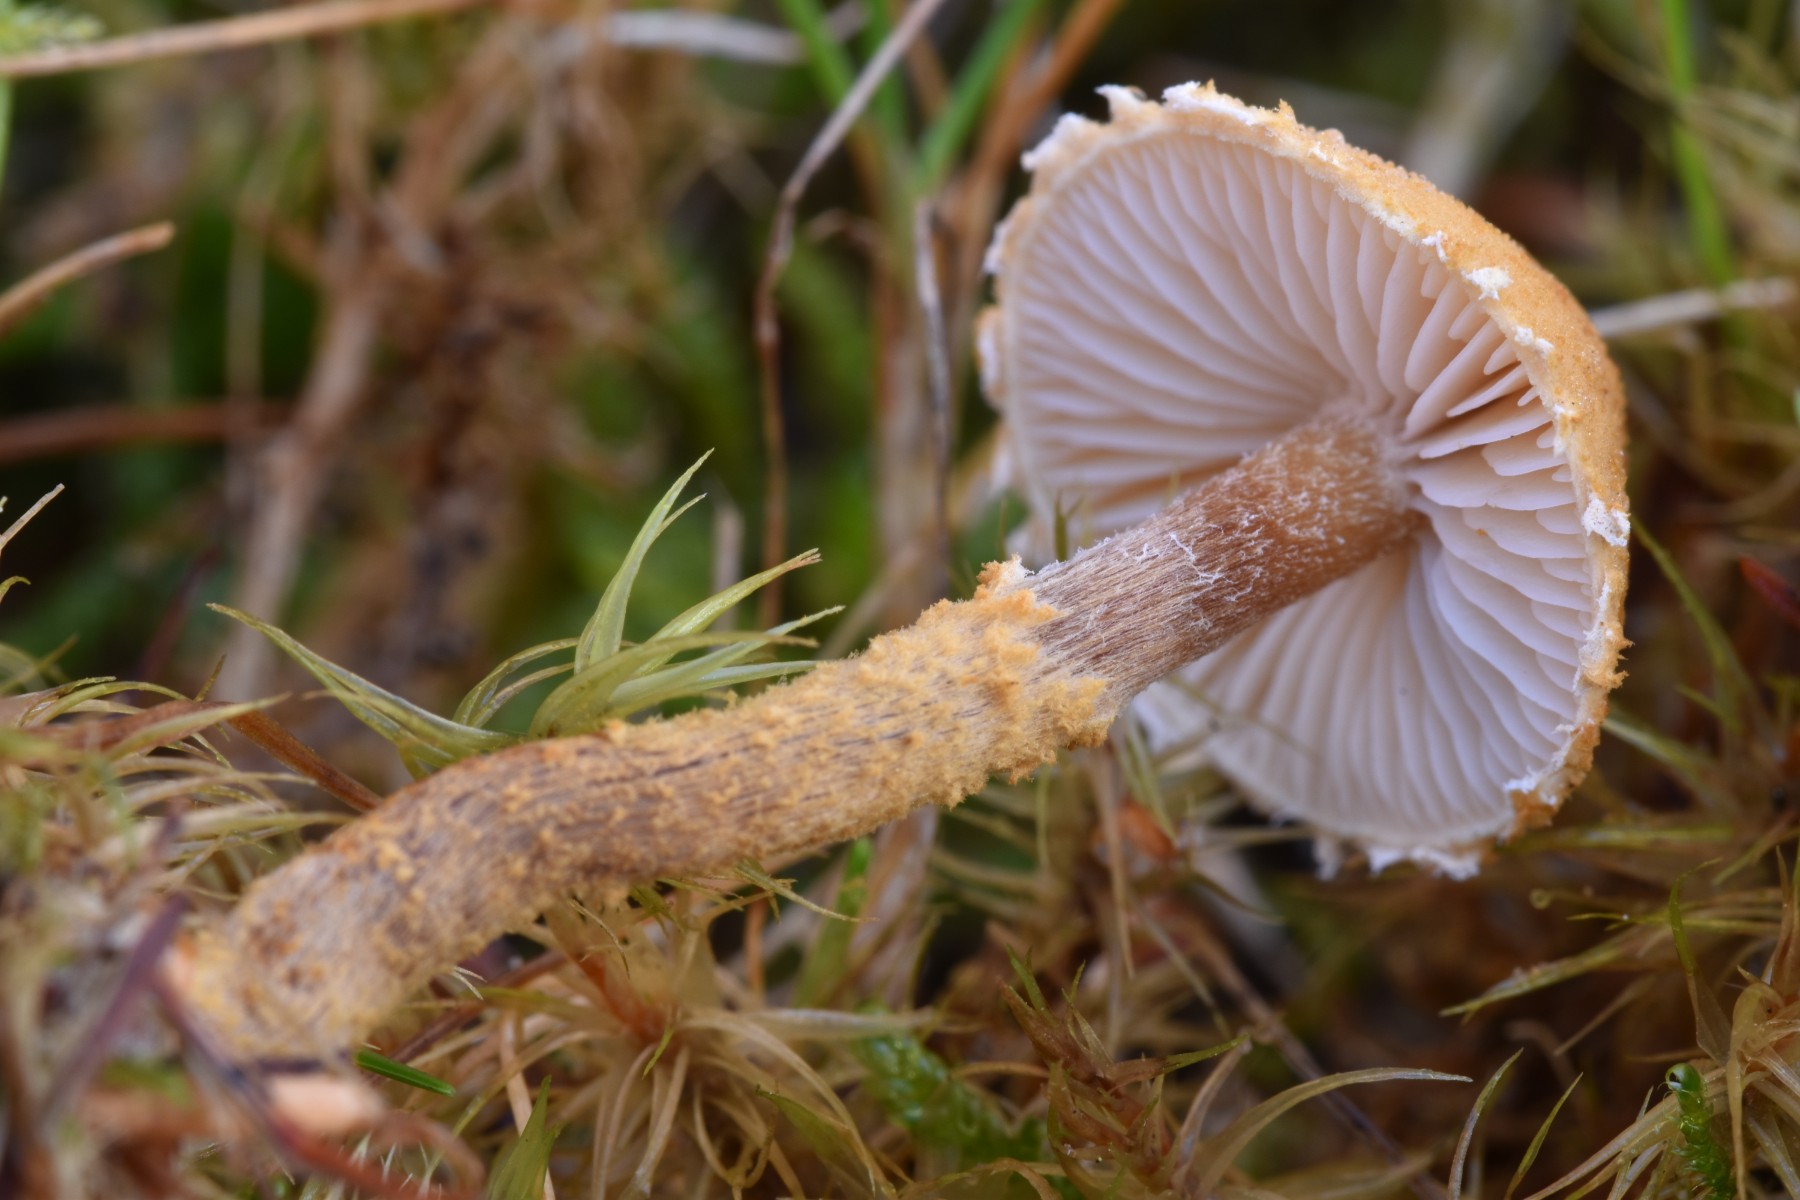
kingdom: Fungi
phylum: Basidiomycota
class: Agaricomycetes
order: Agaricales
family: Tricholomataceae
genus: Cystoderma
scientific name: Cystoderma amianthinum
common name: okkergul grynhat
